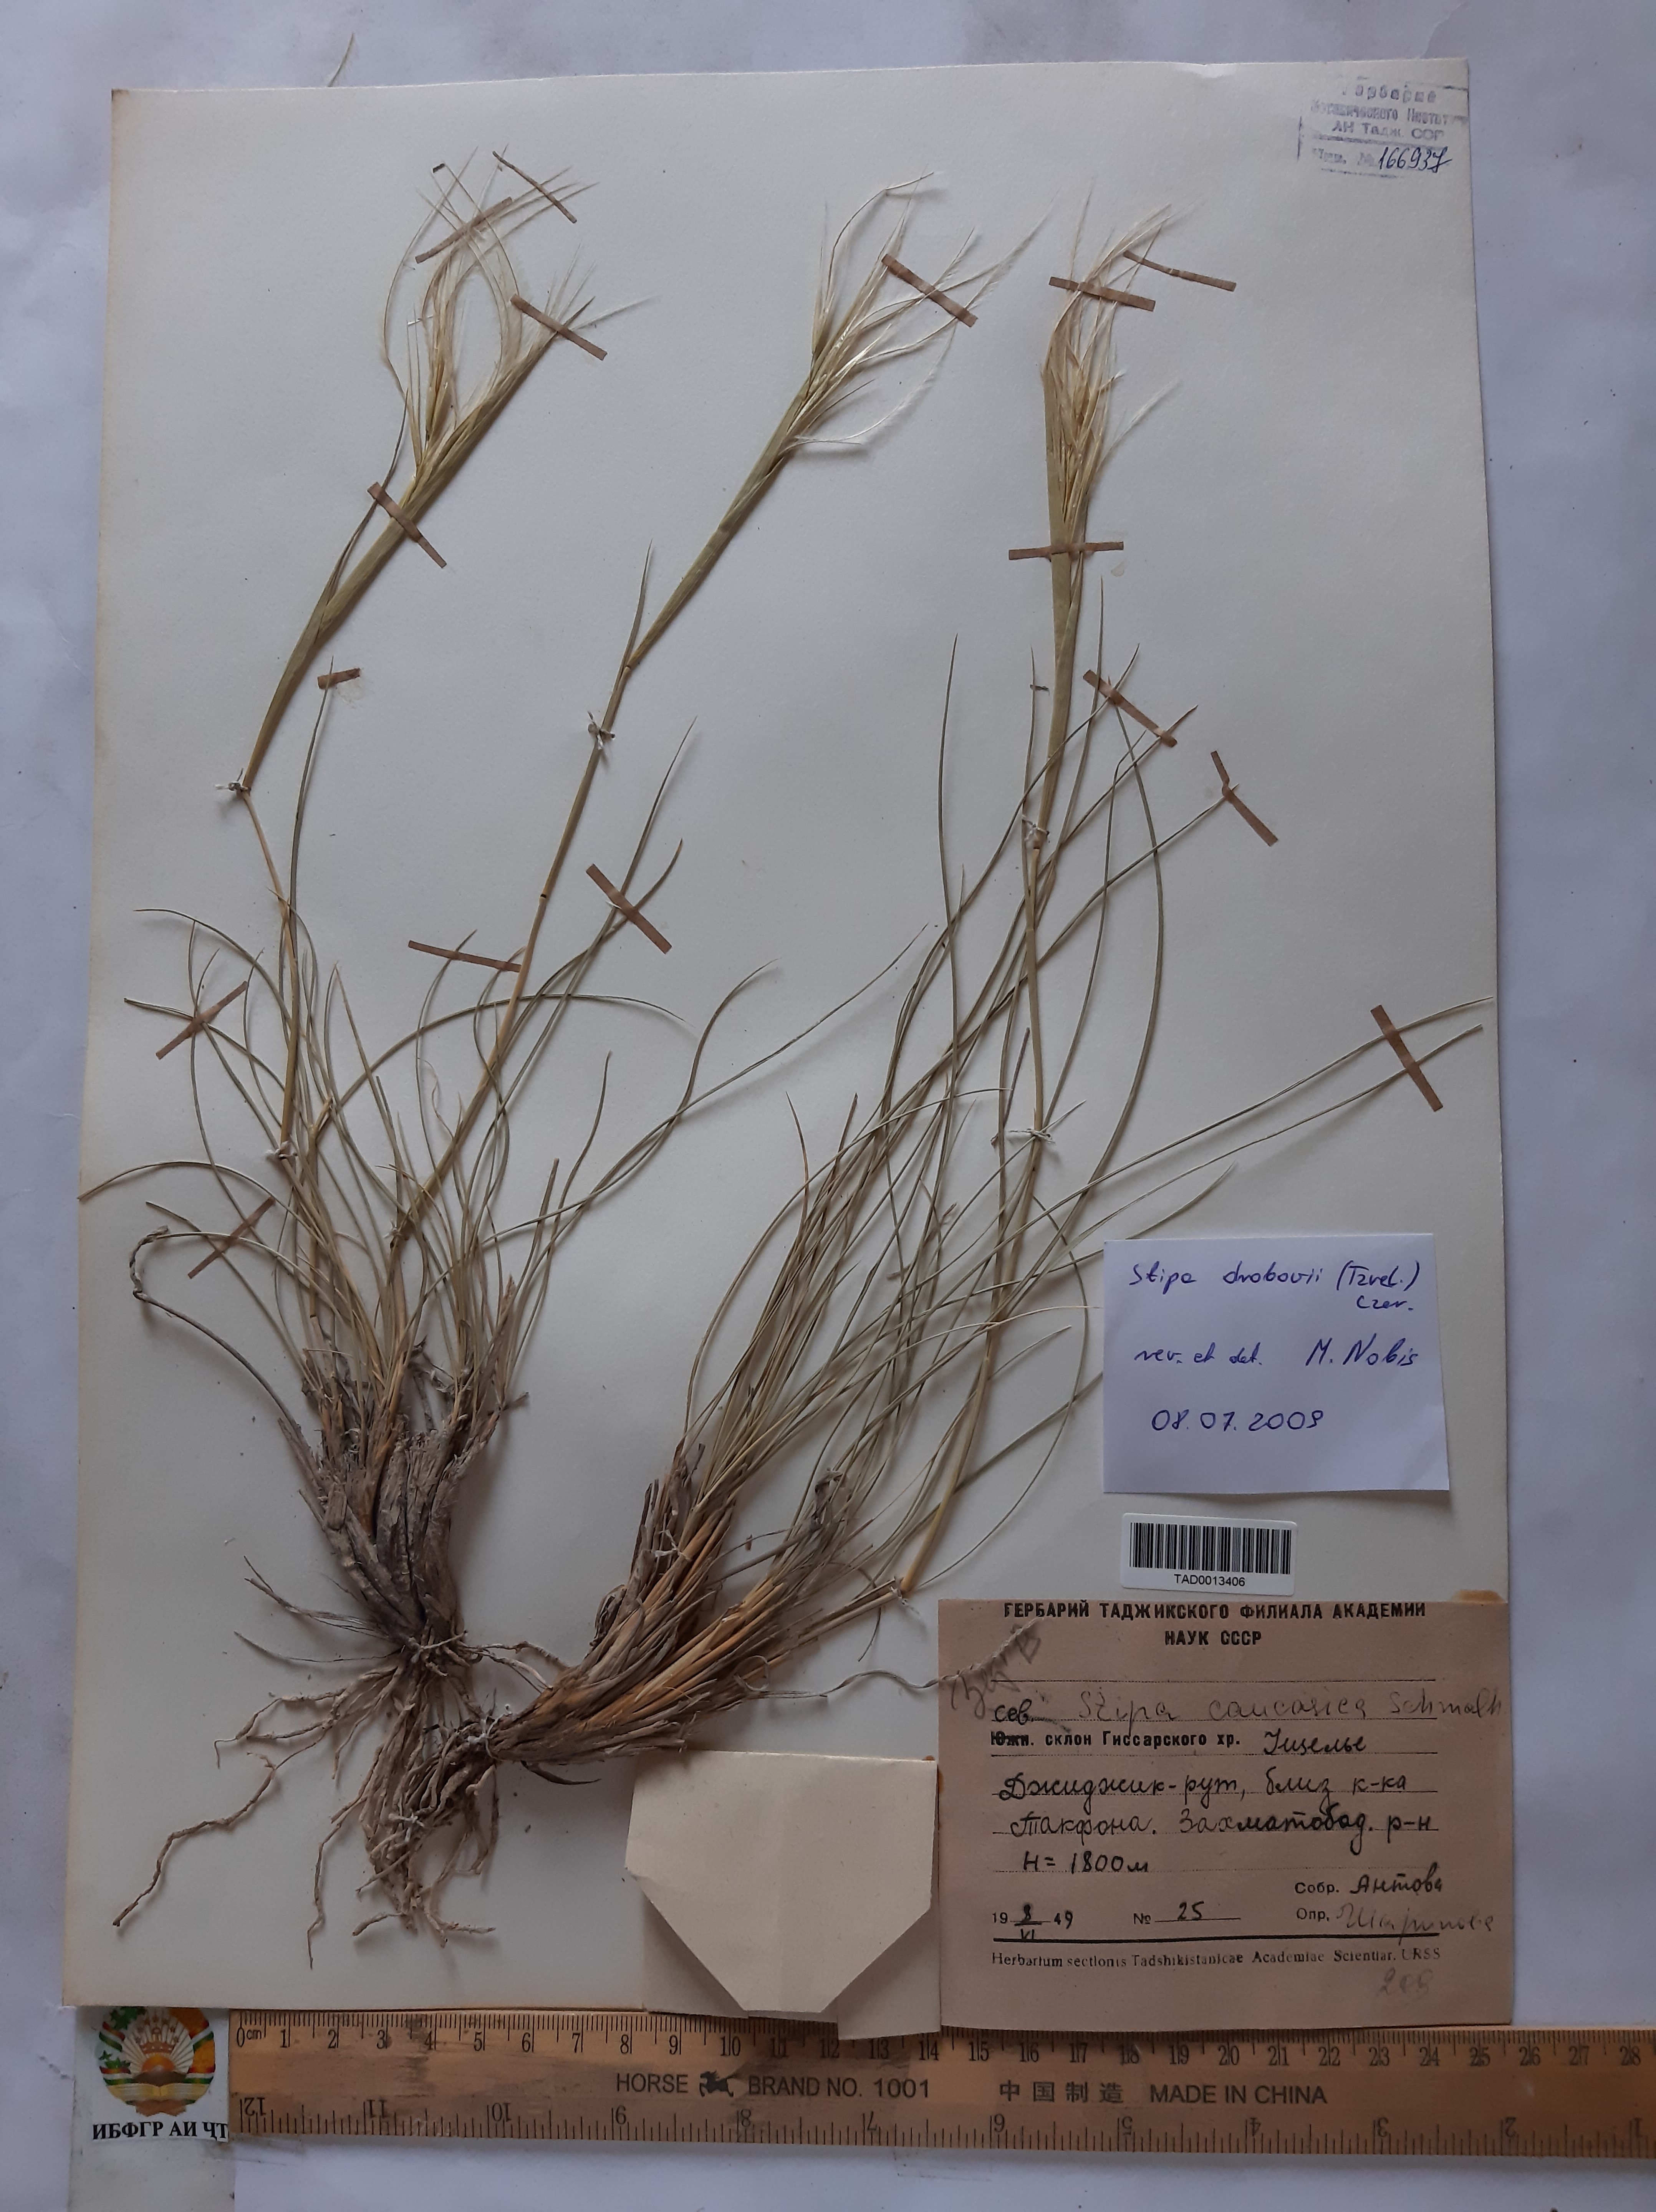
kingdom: Plantae
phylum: Tracheophyta
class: Liliopsida
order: Poales
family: Poaceae
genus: Stipa
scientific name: Stipa caucasica
